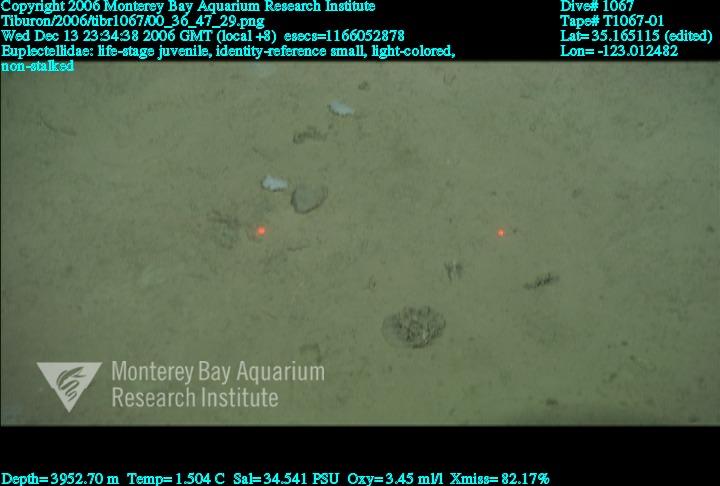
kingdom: Animalia
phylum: Porifera
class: Hexactinellida
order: Lyssacinosida
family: Euplectellidae
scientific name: Euplectellidae
